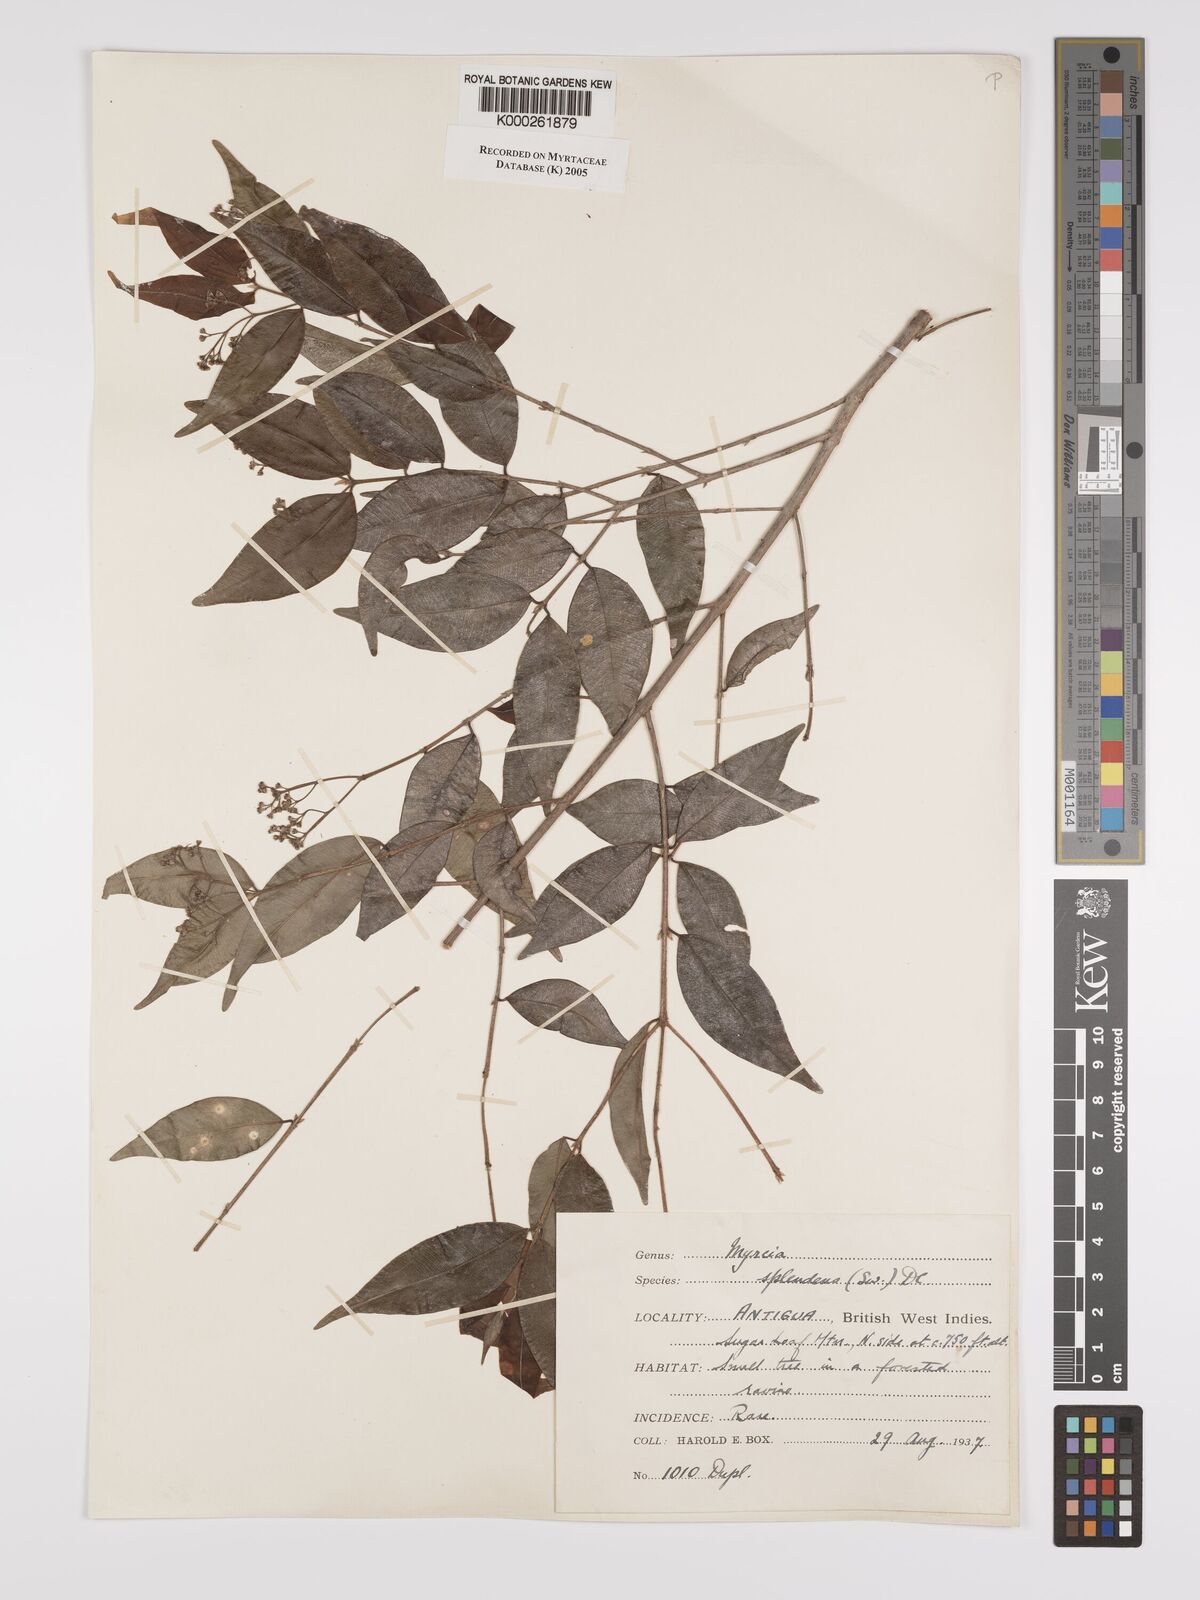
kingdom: Plantae
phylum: Tracheophyta
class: Magnoliopsida
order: Myrtales
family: Myrtaceae
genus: Myrcia
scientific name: Myrcia splendens
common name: Surinam cherry
